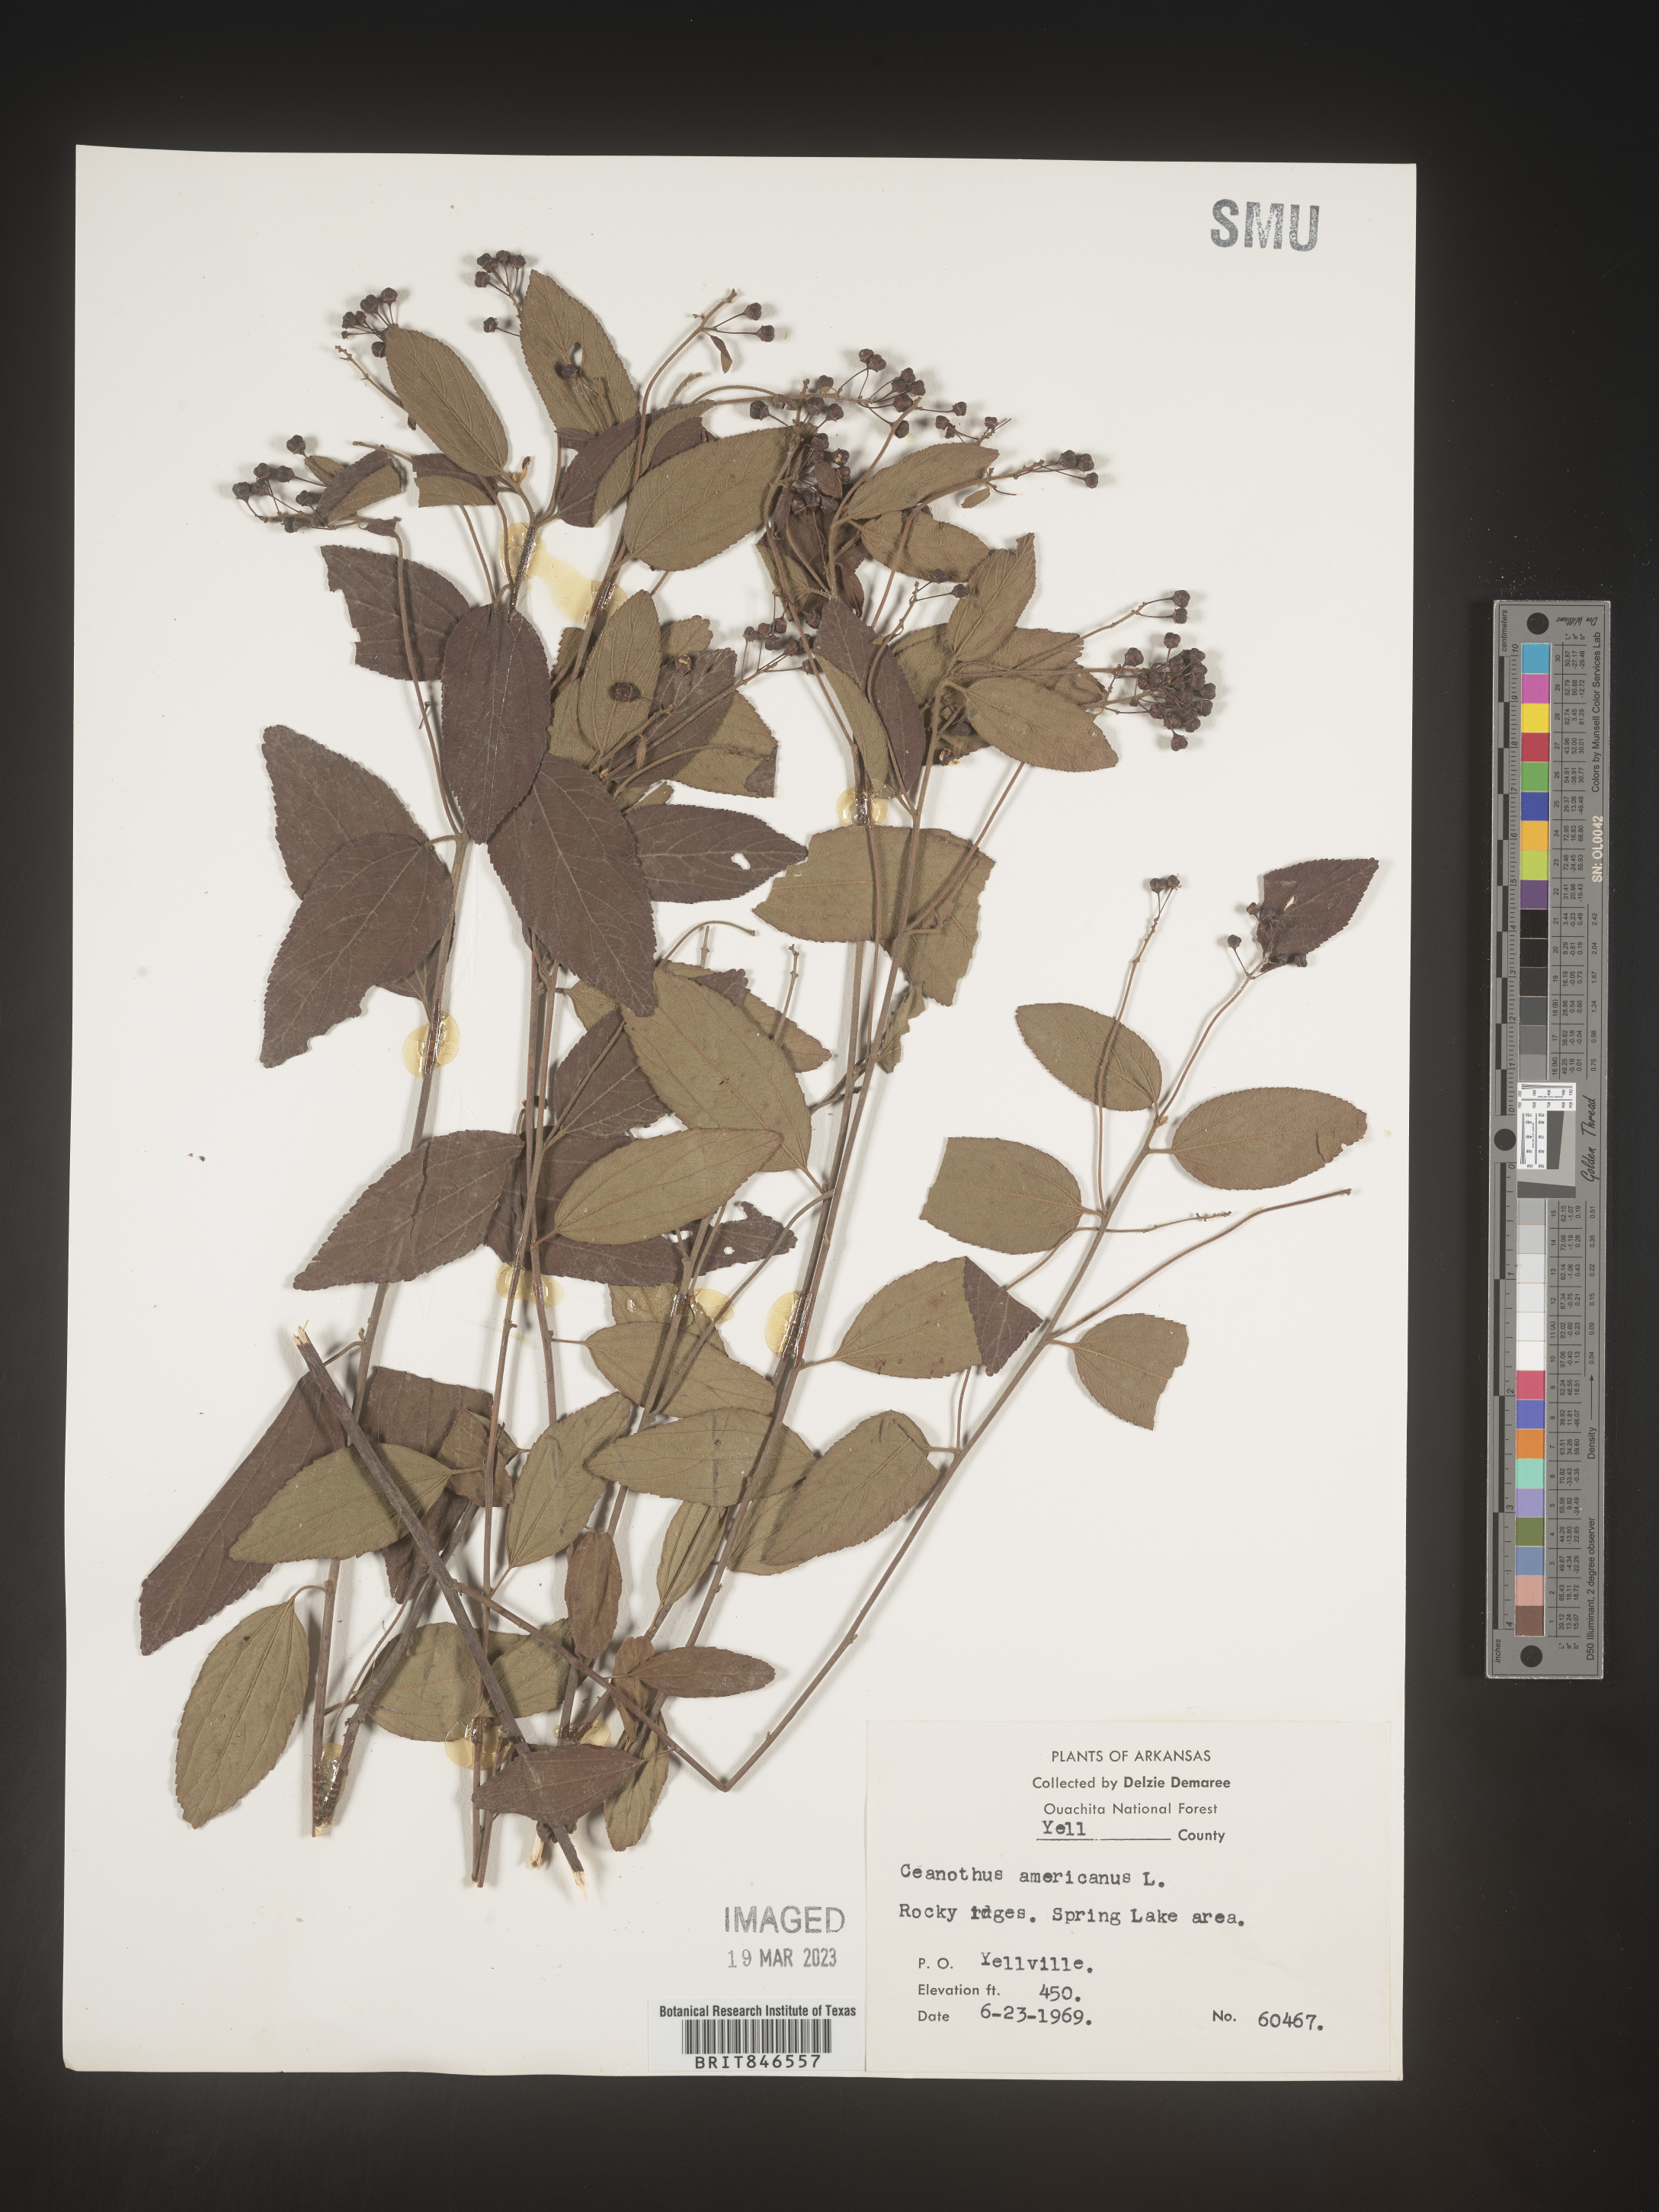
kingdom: Plantae
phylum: Tracheophyta
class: Magnoliopsida
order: Rosales
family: Rhamnaceae
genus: Ceanothus
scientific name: Ceanothus americanus
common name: Redroot
